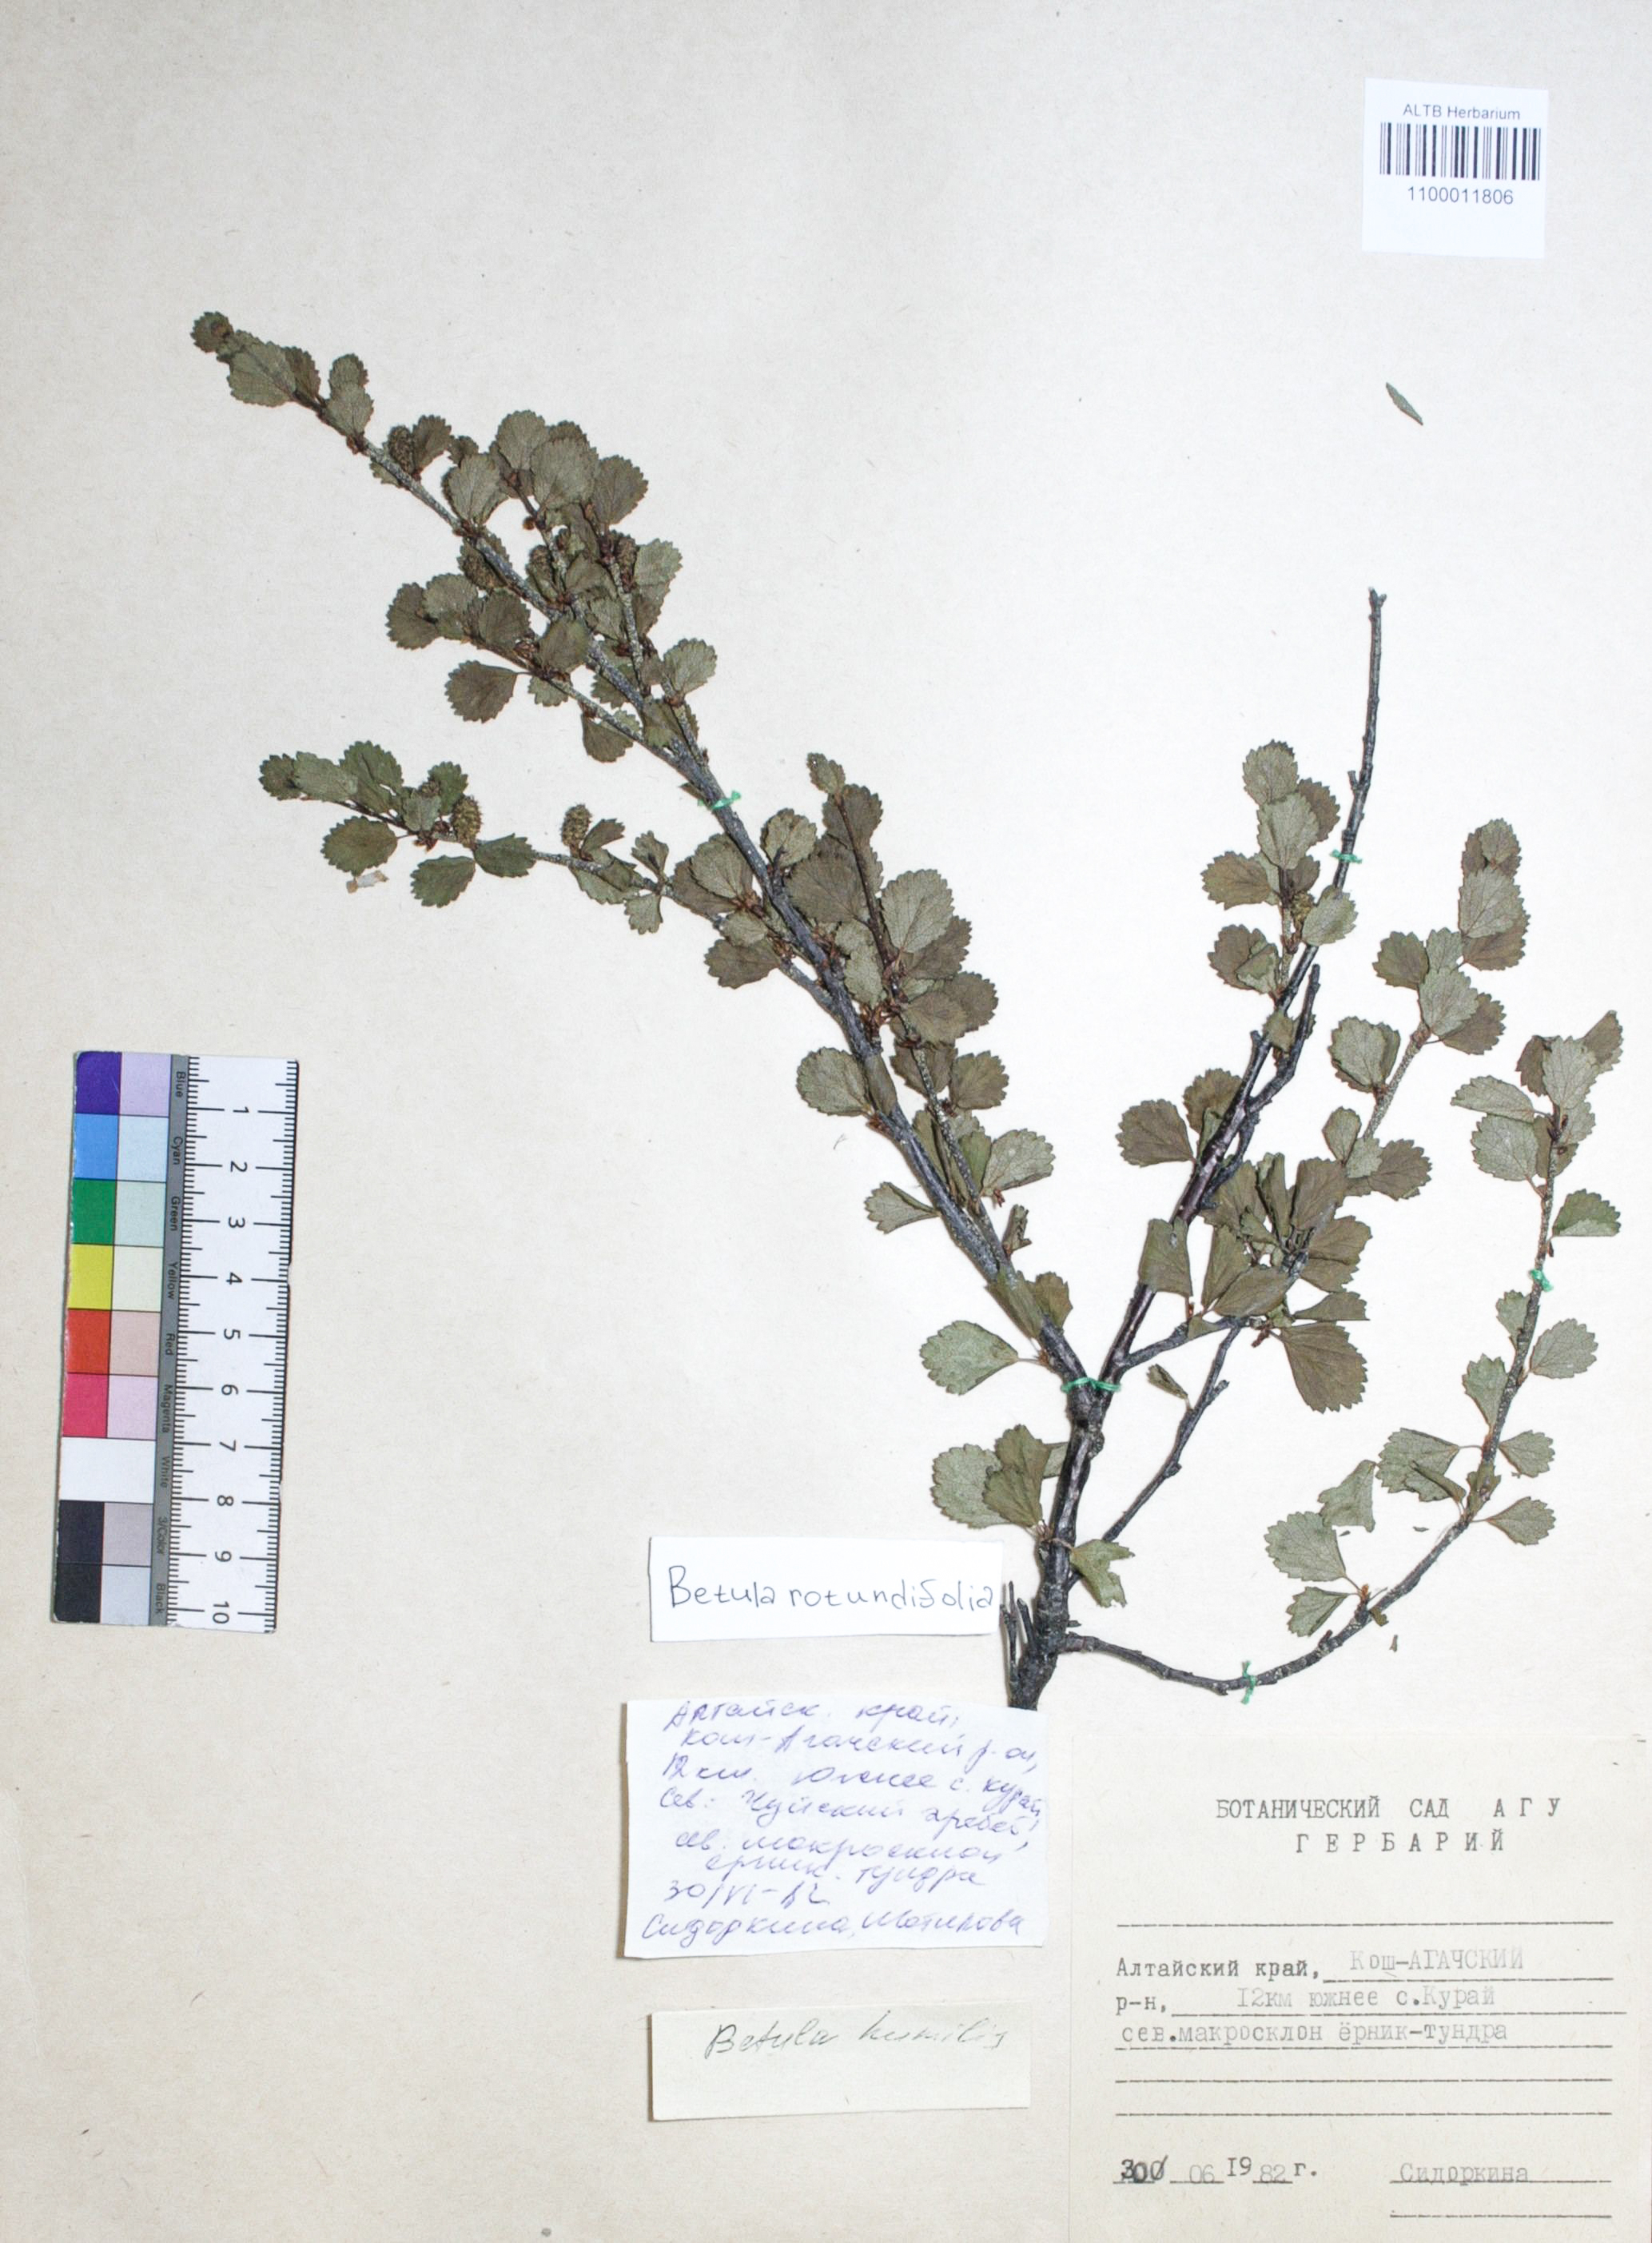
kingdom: Plantae
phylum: Tracheophyta
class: Magnoliopsida
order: Fagales
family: Betulaceae
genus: Betula
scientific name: Betula glandulosa
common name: Dwarf birch
